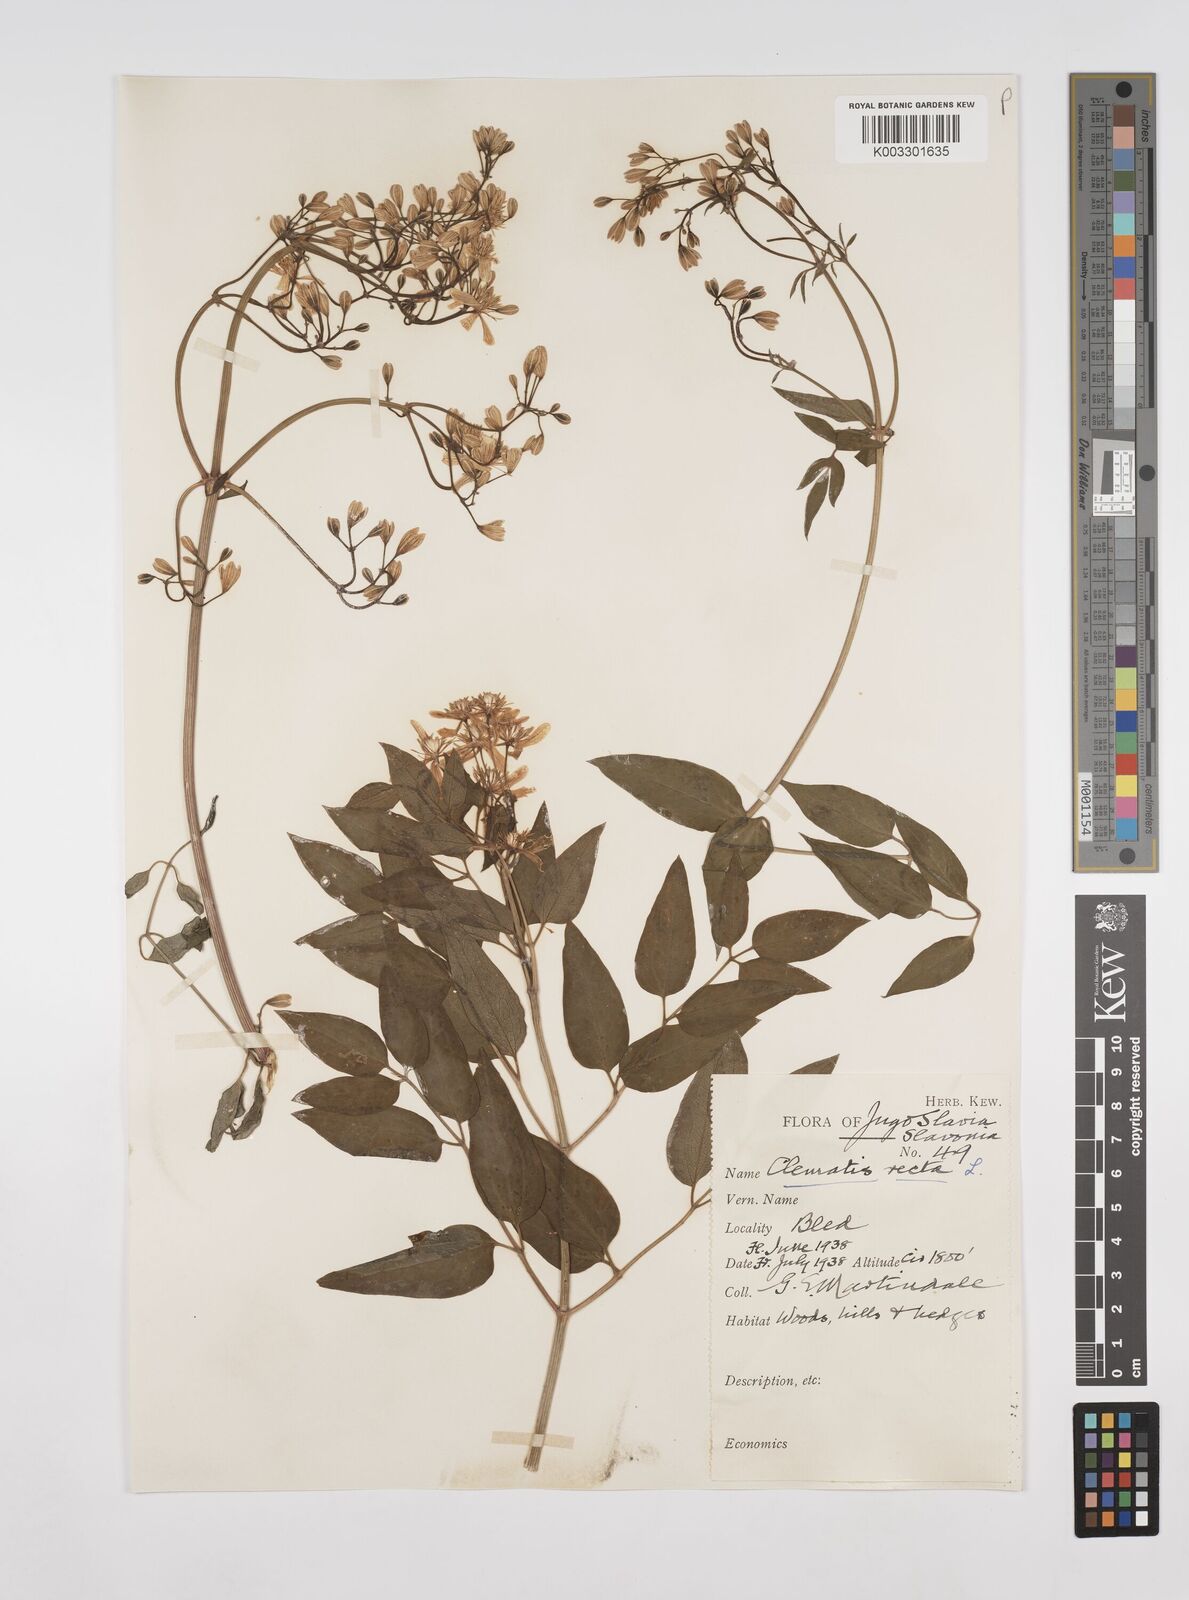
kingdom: Plantae
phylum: Tracheophyta
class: Magnoliopsida
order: Ranunculales
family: Ranunculaceae
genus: Clematis
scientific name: Clematis recta
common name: Ground clematis
